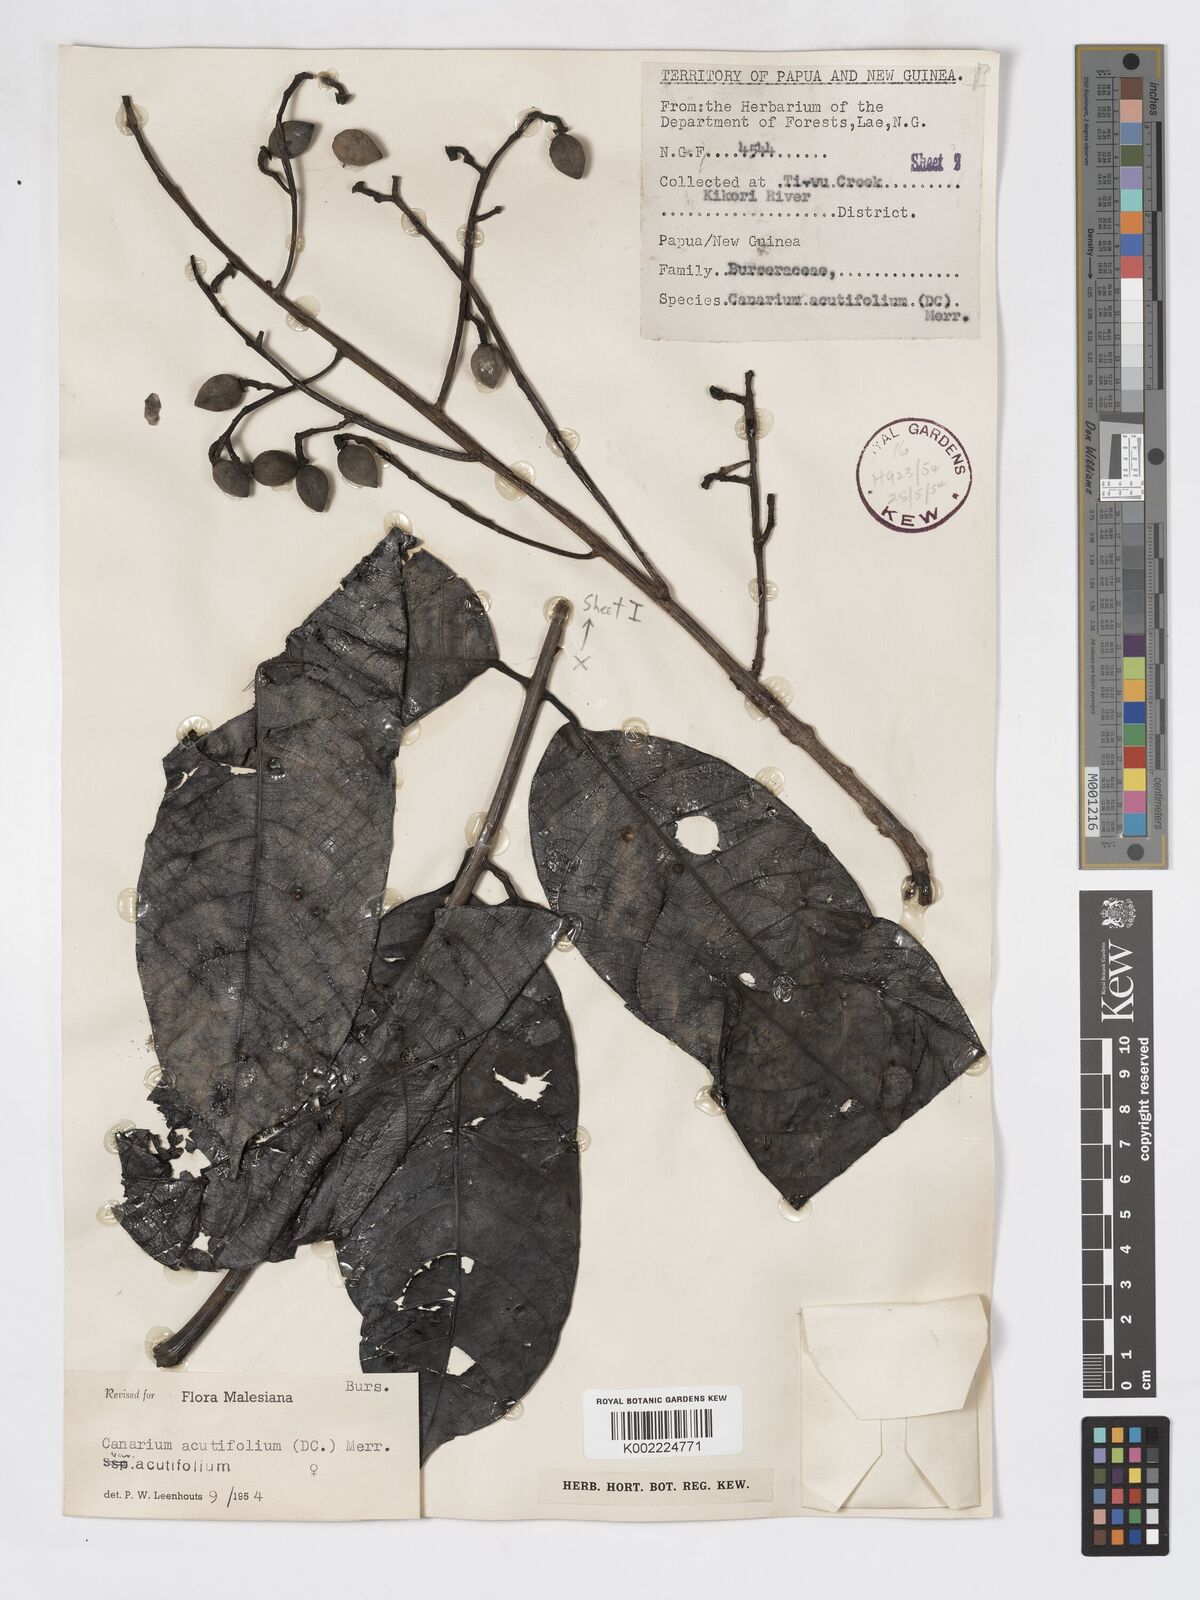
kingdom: Plantae
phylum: Tracheophyta
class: Magnoliopsida
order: Sapindales
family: Burseraceae
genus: Canarium
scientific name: Canarium acutifolium
